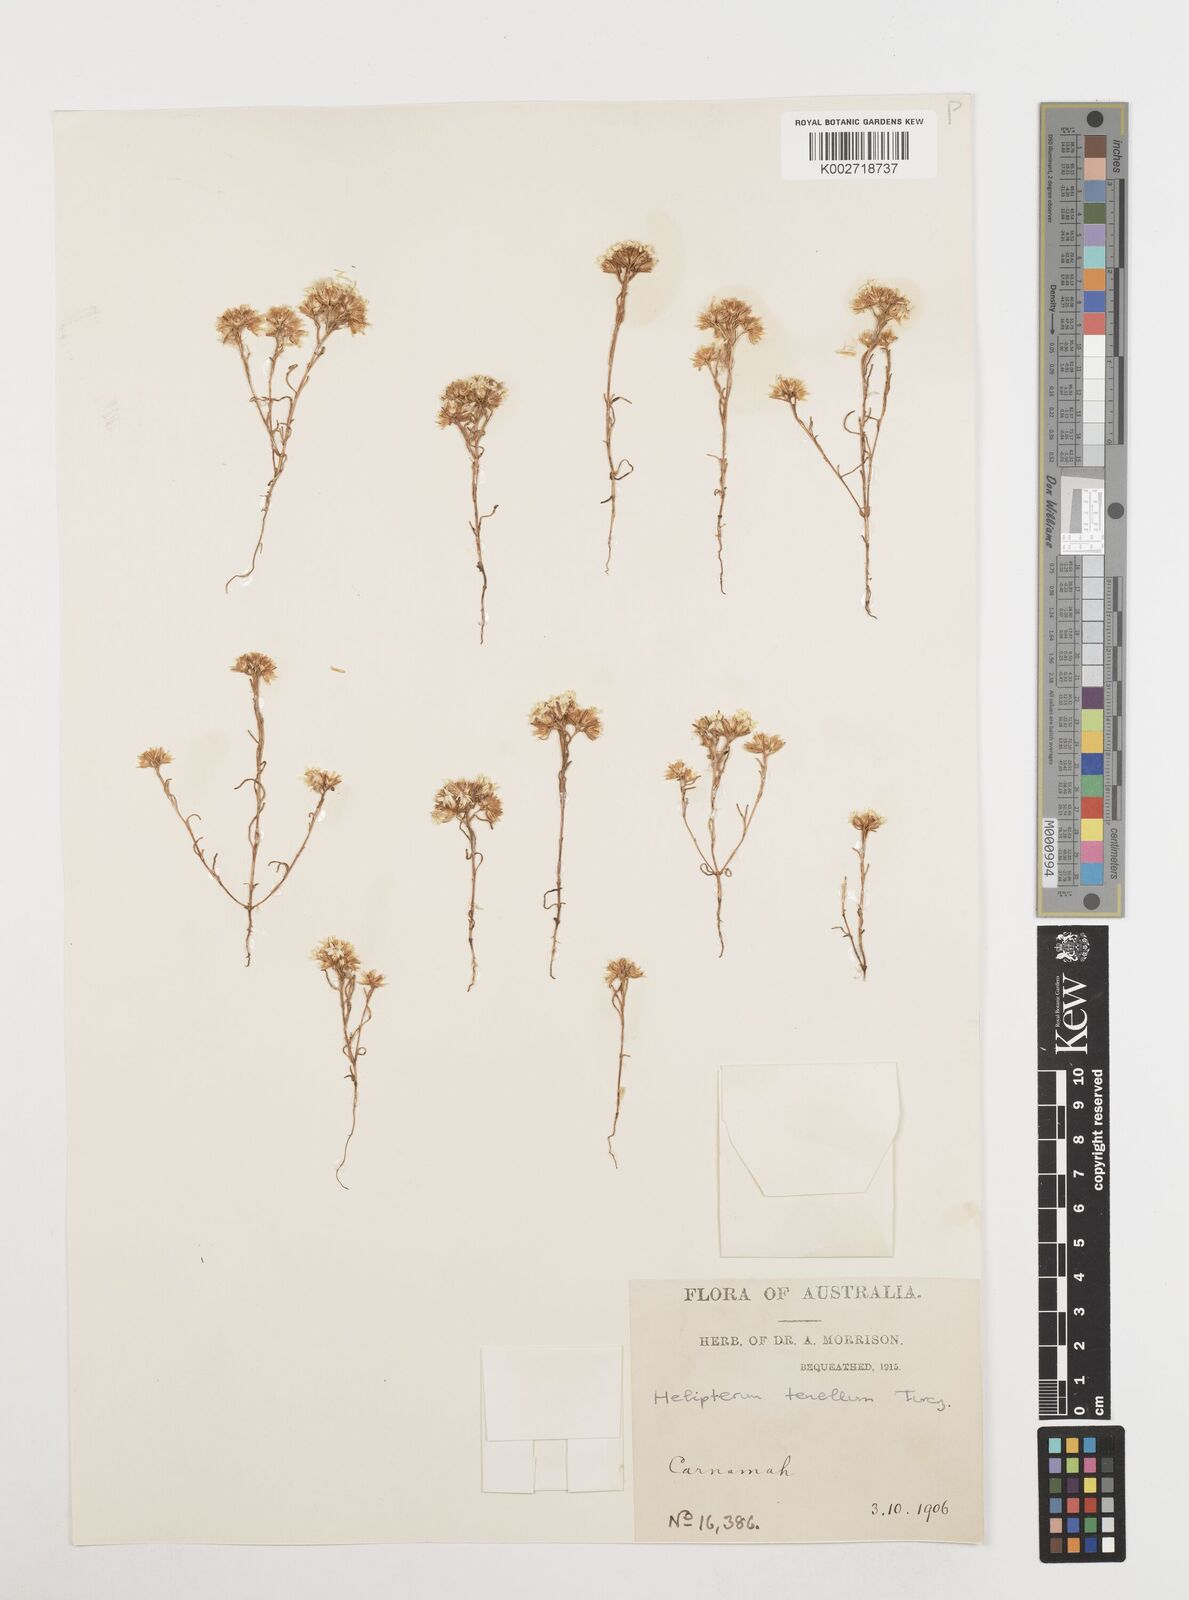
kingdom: Plantae
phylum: Tracheophyta
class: Magnoliopsida
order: Asterales
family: Asteraceae
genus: Erymophyllum
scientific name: Erymophyllum tenellum
